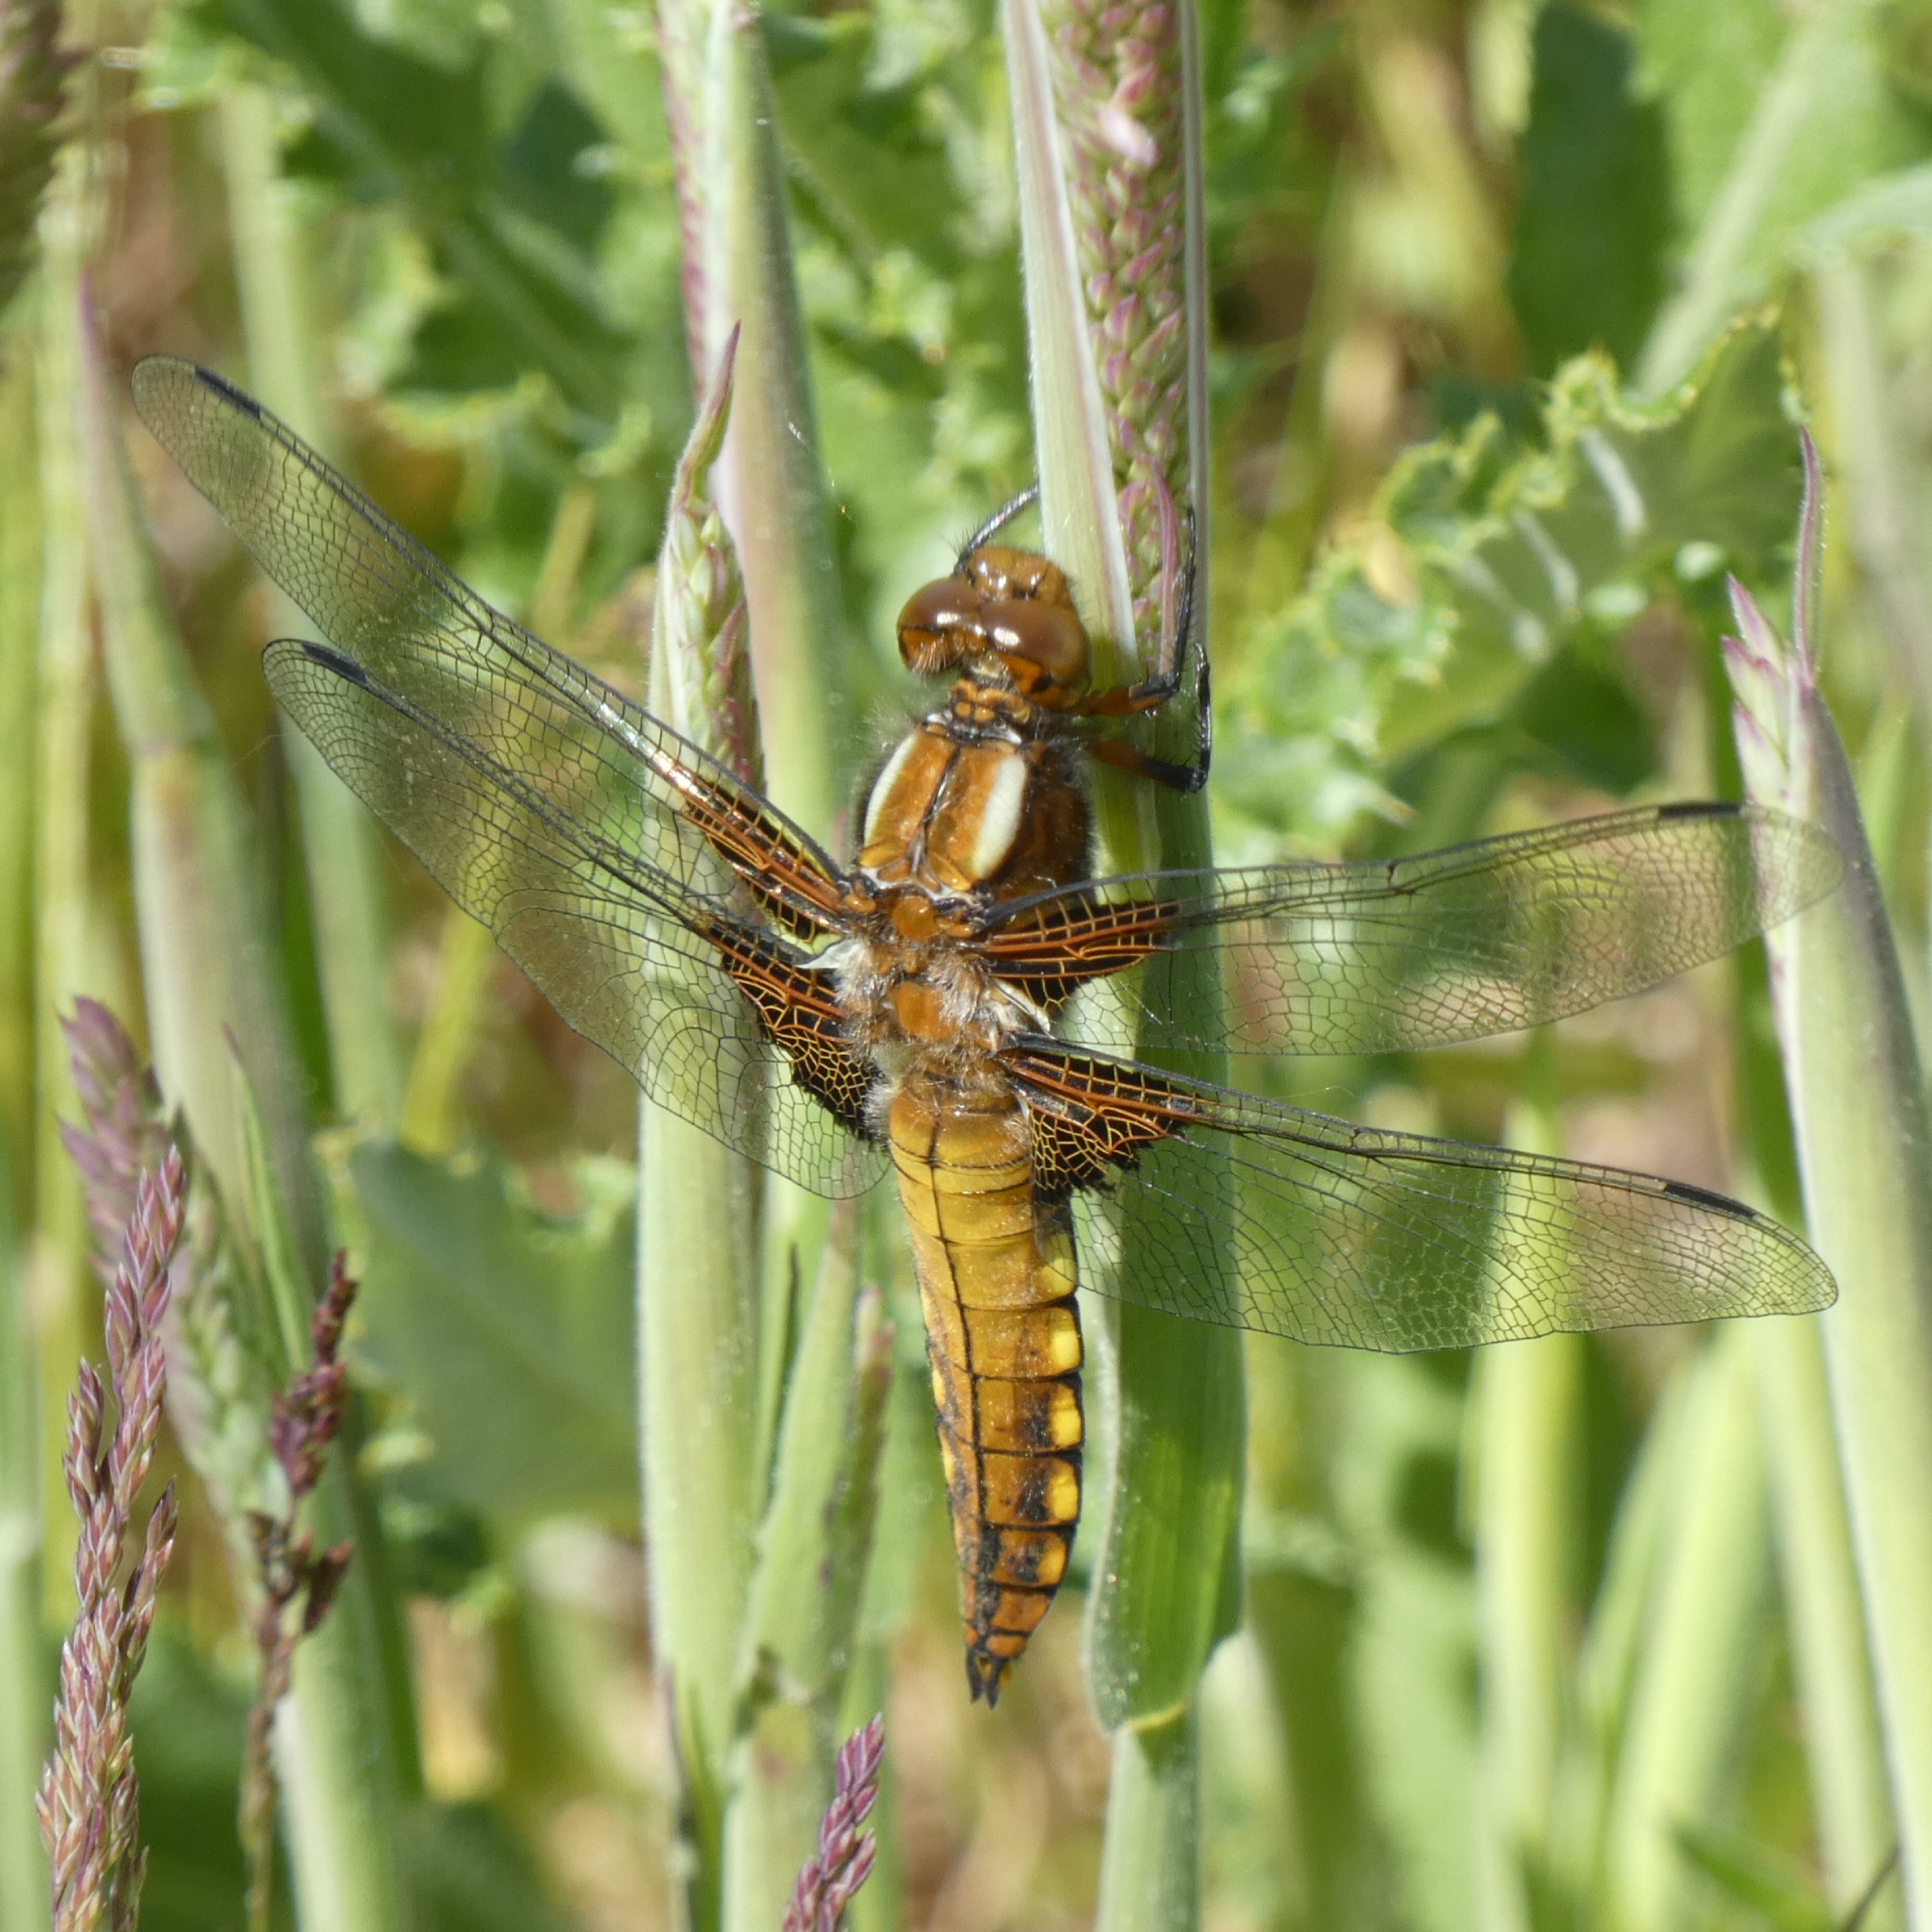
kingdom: Animalia
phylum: Arthropoda
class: Insecta
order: Odonata
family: Libellulidae
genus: Libellula
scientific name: Libellula depressa
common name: Blå libel
